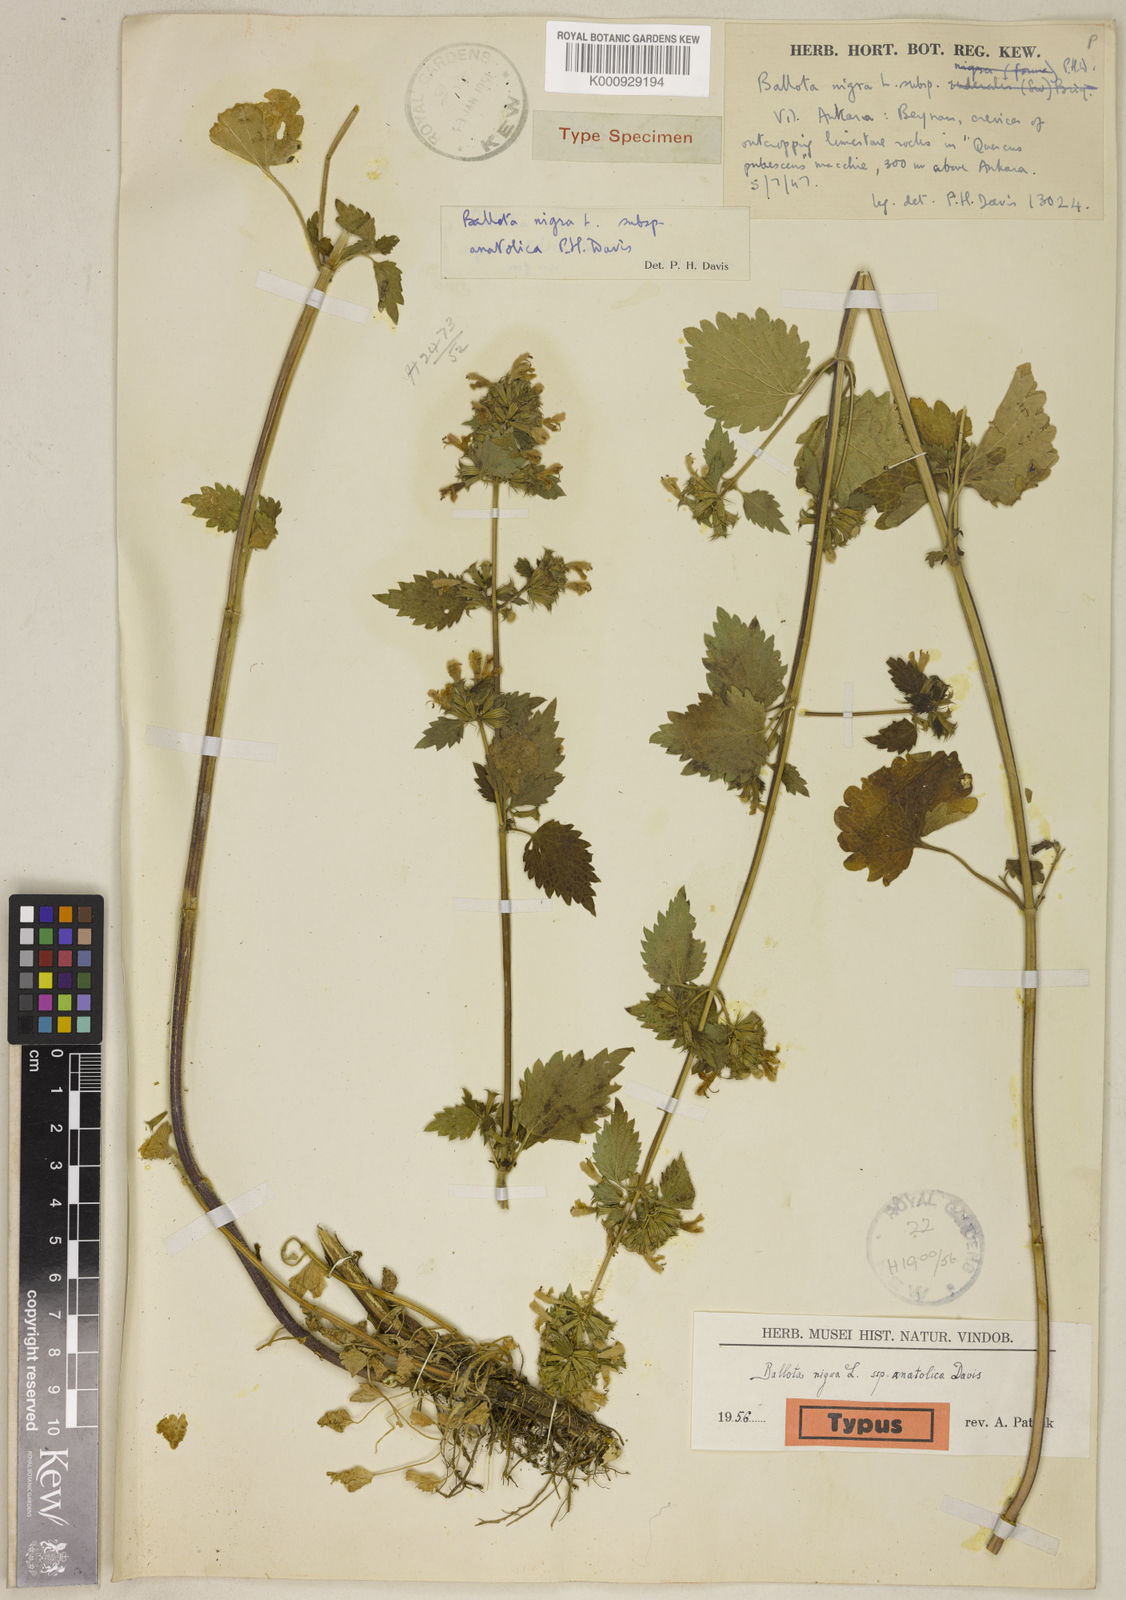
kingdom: Plantae
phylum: Tracheophyta
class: Magnoliopsida
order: Lamiales
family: Lamiaceae
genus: Ballota
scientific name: Ballota nigra
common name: Black horehound
